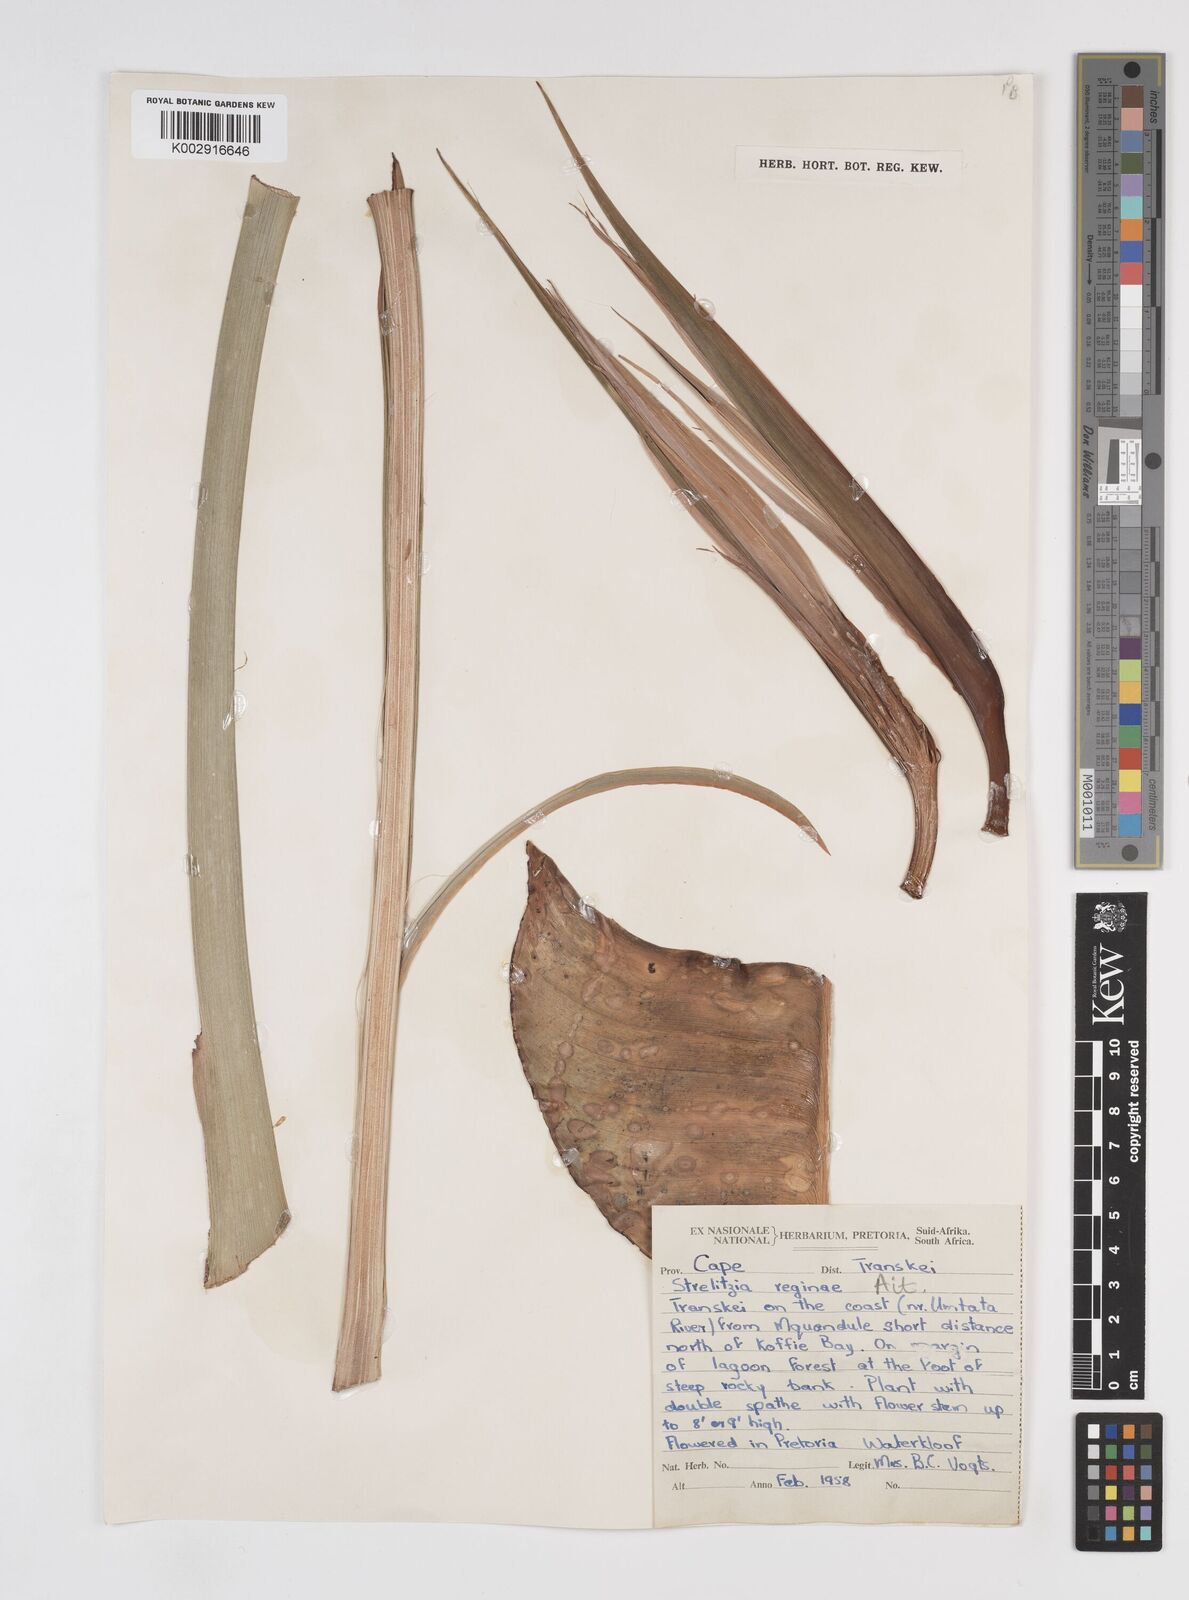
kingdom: Plantae
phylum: Tracheophyta
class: Liliopsida
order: Zingiberales
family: Strelitziaceae
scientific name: Strelitziaceae
